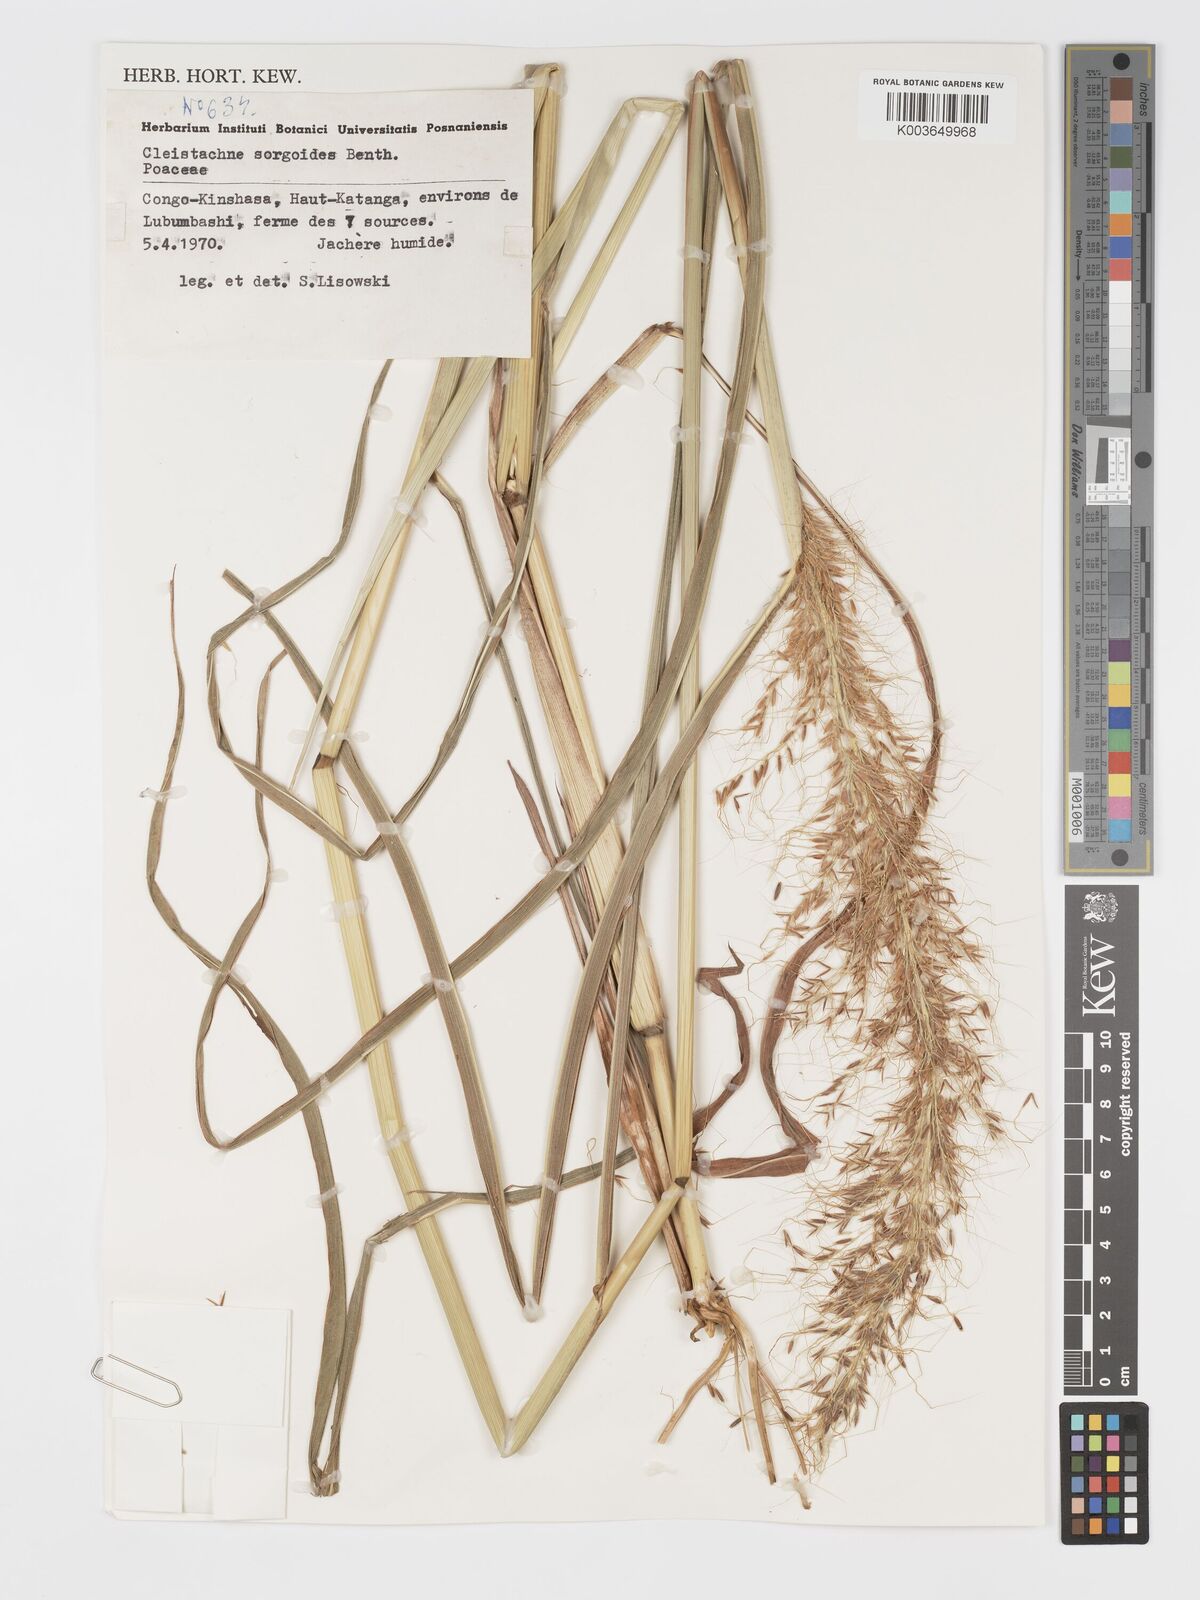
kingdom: Plantae
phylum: Tracheophyta
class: Liliopsida
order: Poales
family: Poaceae
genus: Cleistachne
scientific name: Cleistachne sorghoides
